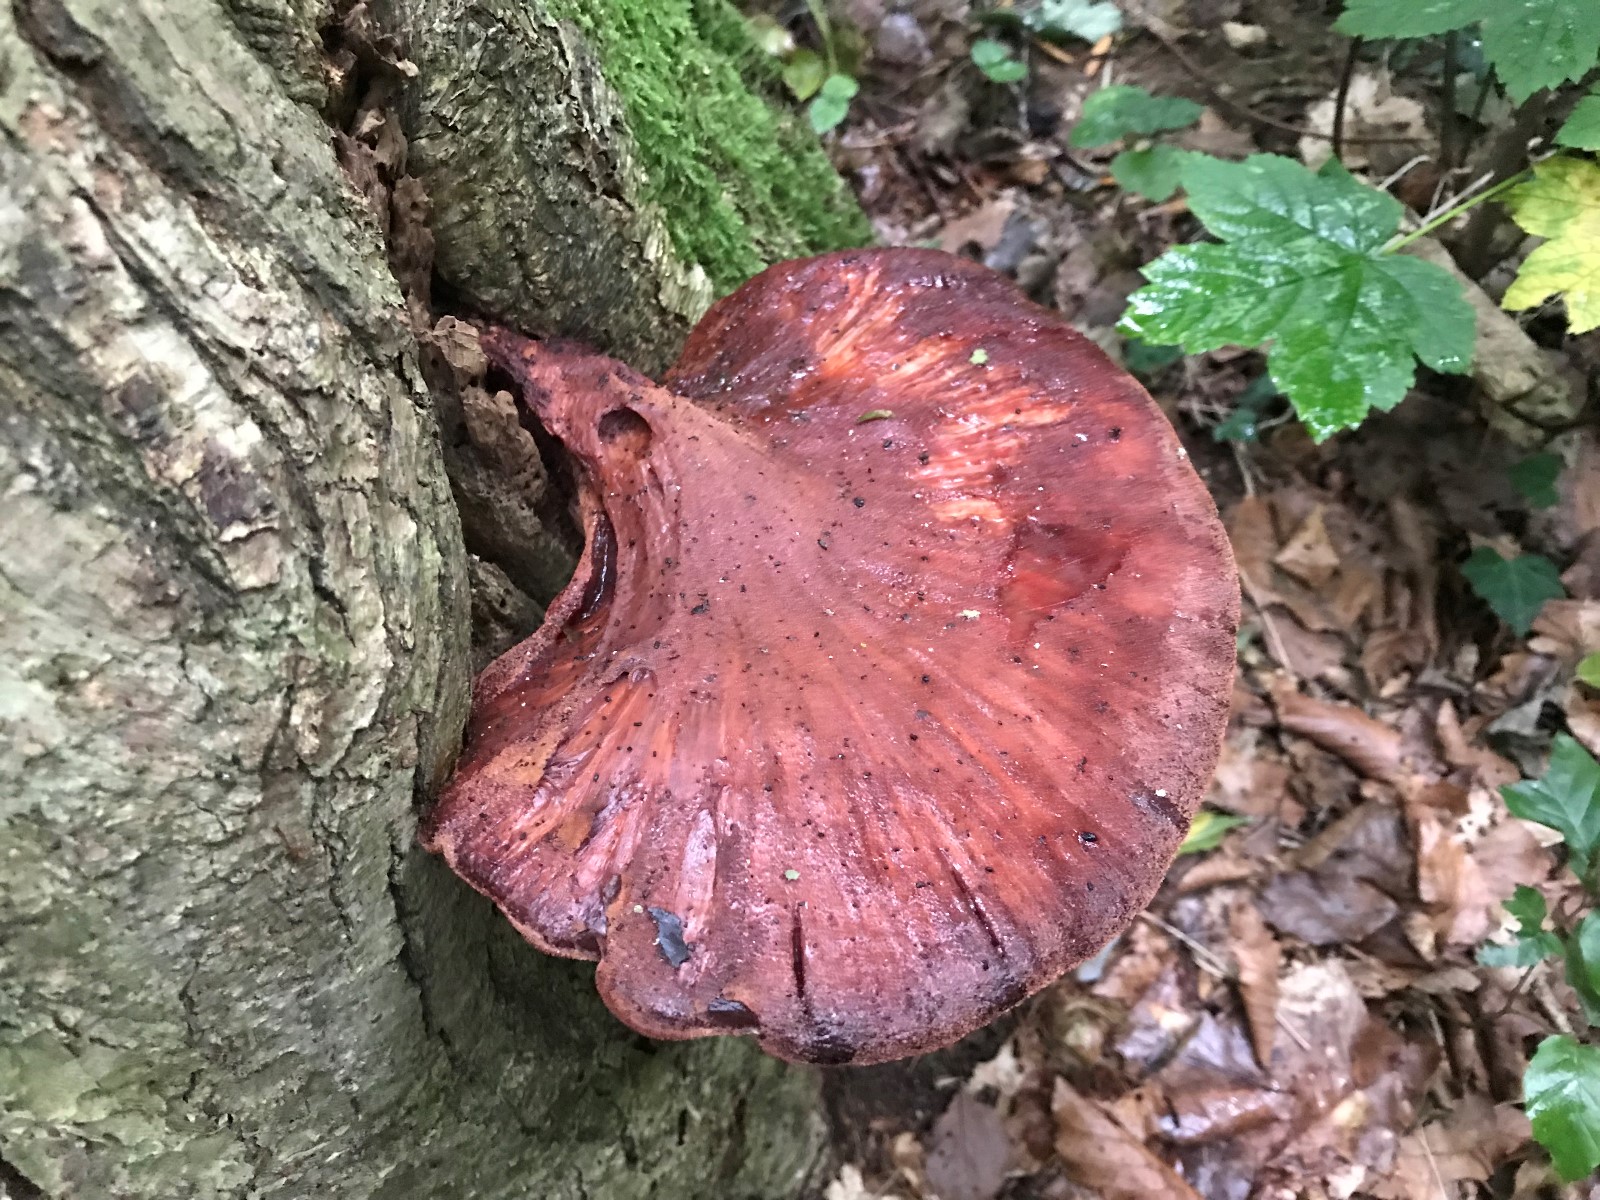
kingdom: Fungi
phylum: Basidiomycota
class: Agaricomycetes
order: Agaricales
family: Fistulinaceae
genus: Fistulina
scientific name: Fistulina hepatica
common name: oksetunge
